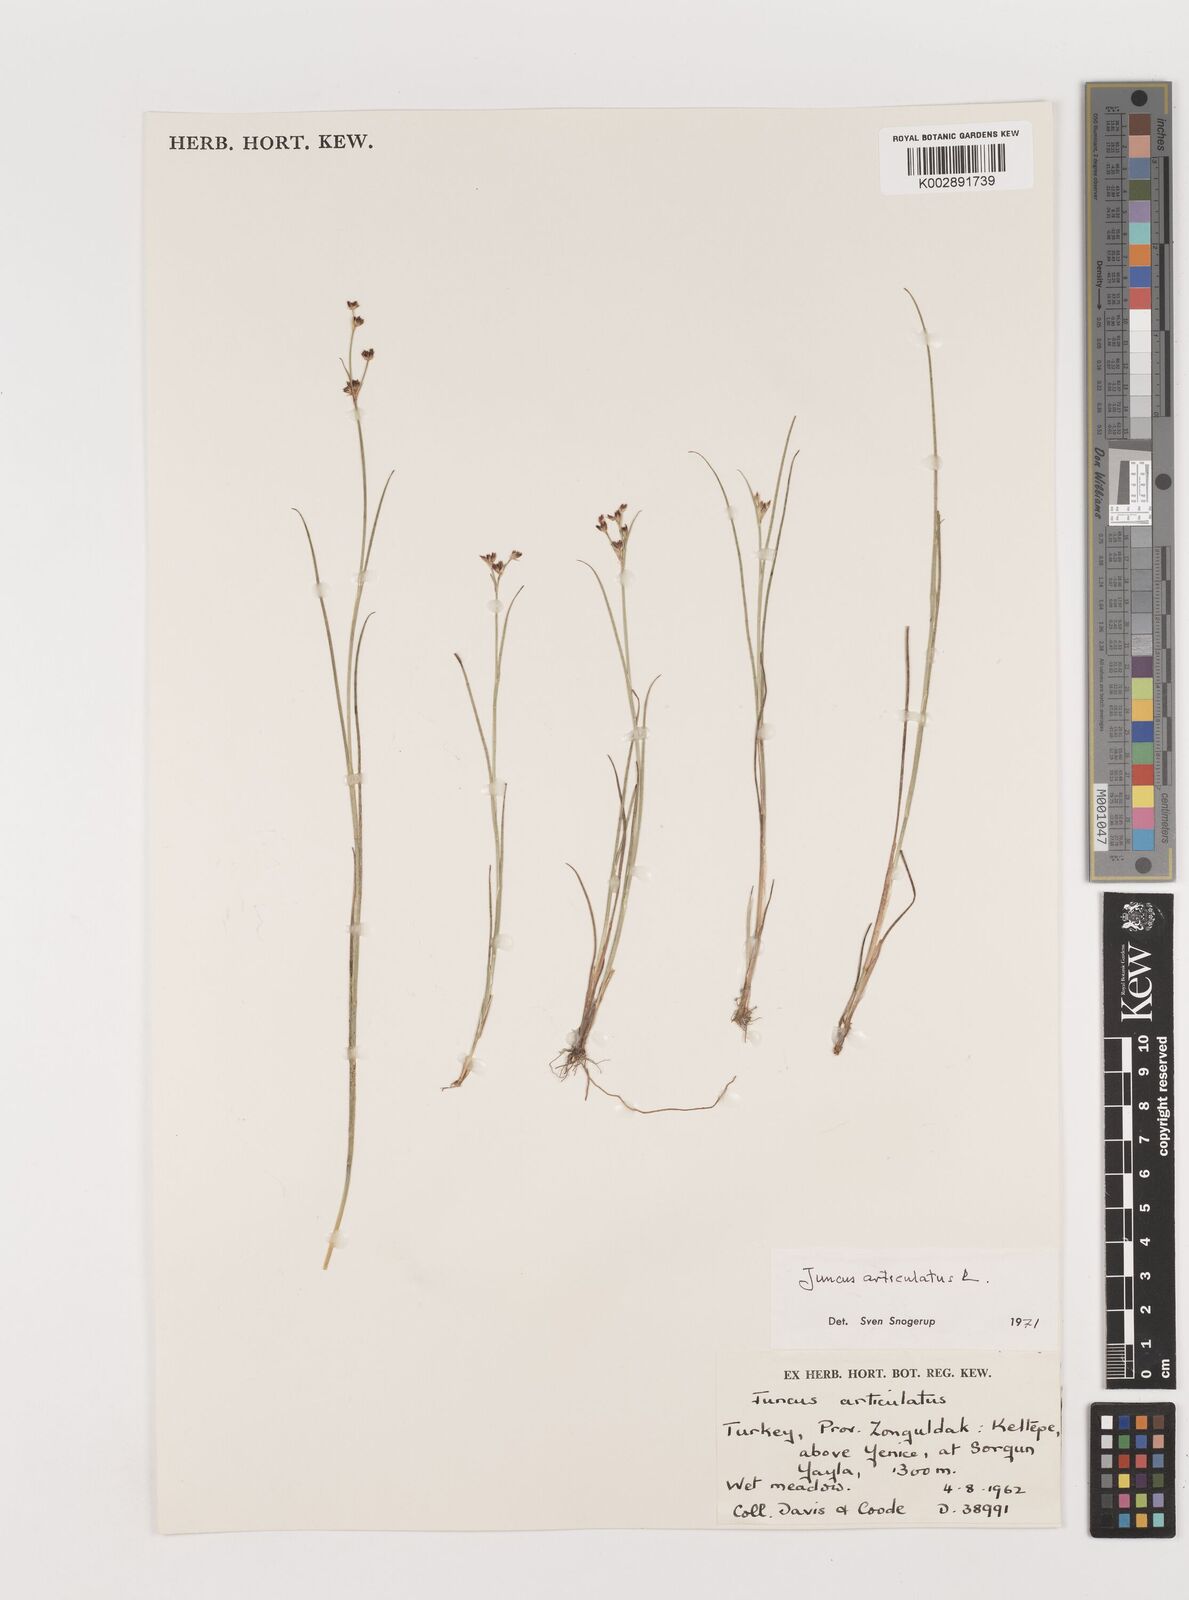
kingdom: Plantae
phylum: Tracheophyta
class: Liliopsida
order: Poales
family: Juncaceae
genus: Juncus
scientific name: Juncus articulatus
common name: Jointed rush
